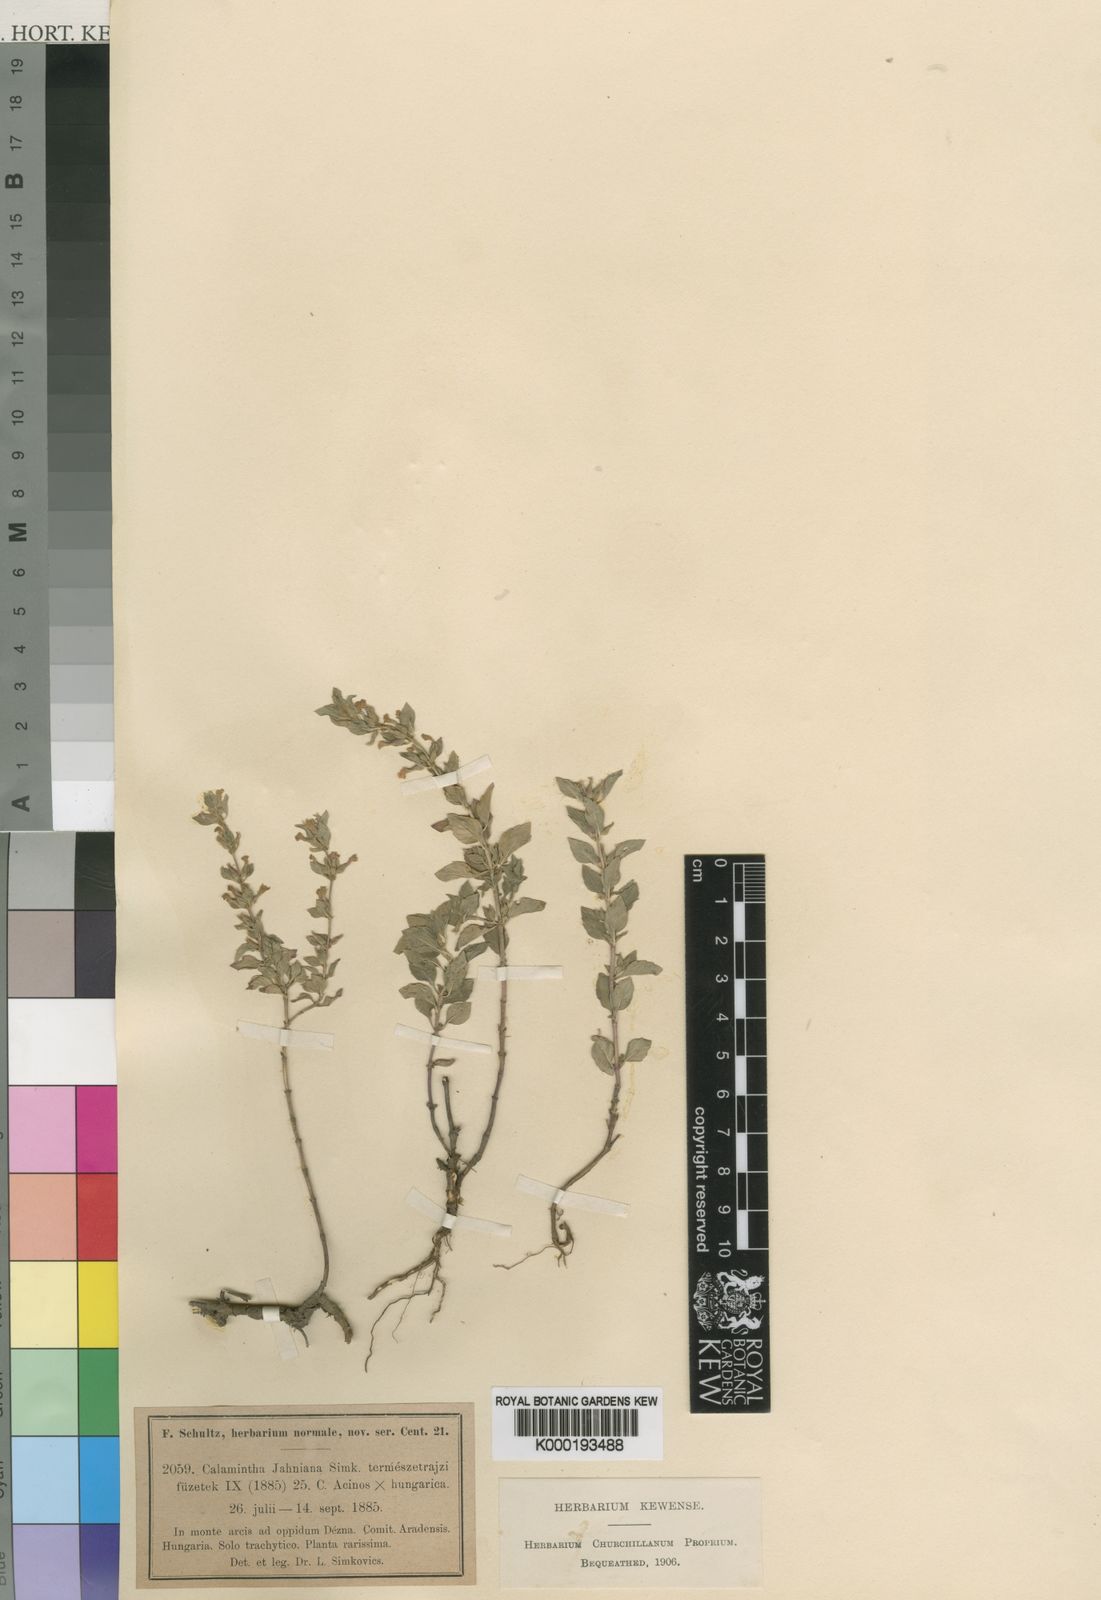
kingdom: Plantae
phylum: Tracheophyta
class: Magnoliopsida
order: Lamiales
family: Lamiaceae
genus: Clinopodium
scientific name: Clinopodium Calamintha jahniana
